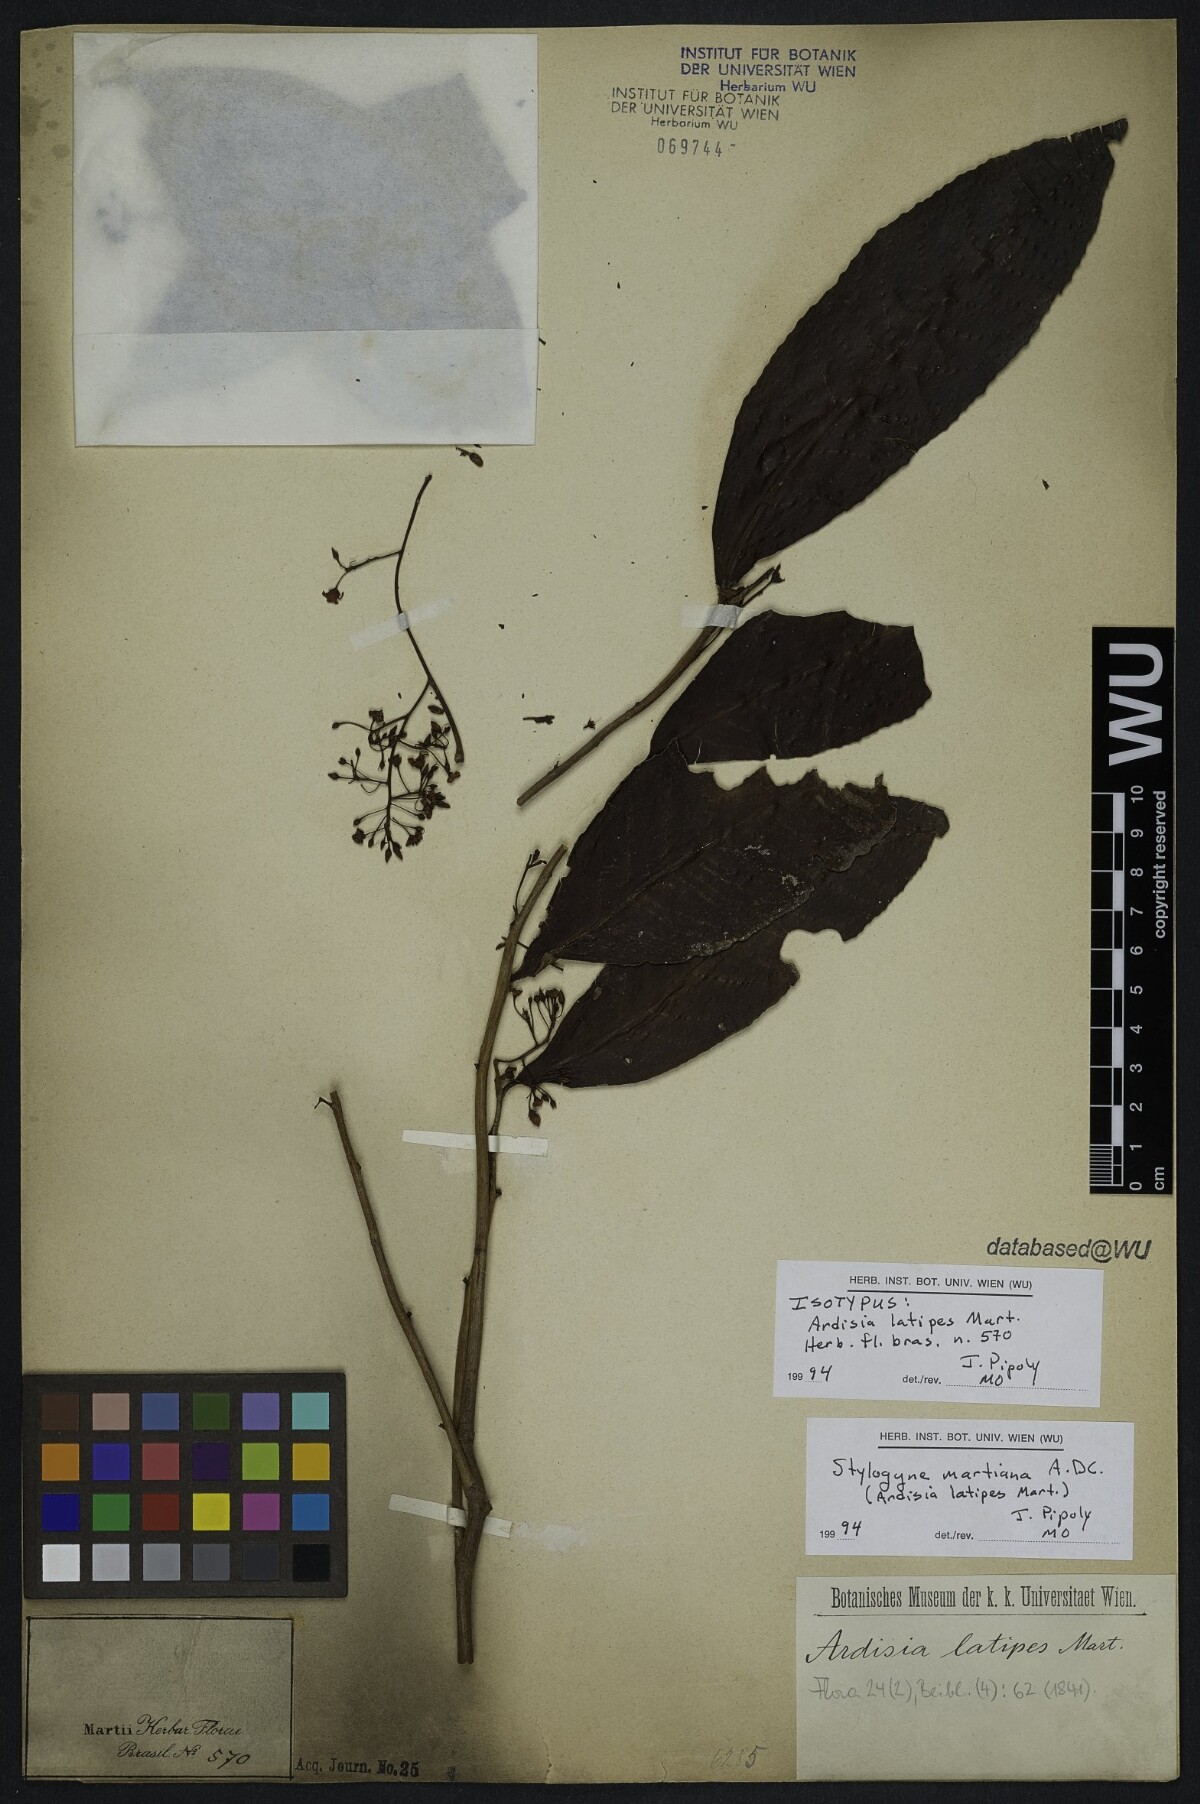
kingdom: Plantae
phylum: Tracheophyta
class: Magnoliopsida
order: Ericales
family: Primulaceae
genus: Stylogyne
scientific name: Stylogyne martiana
